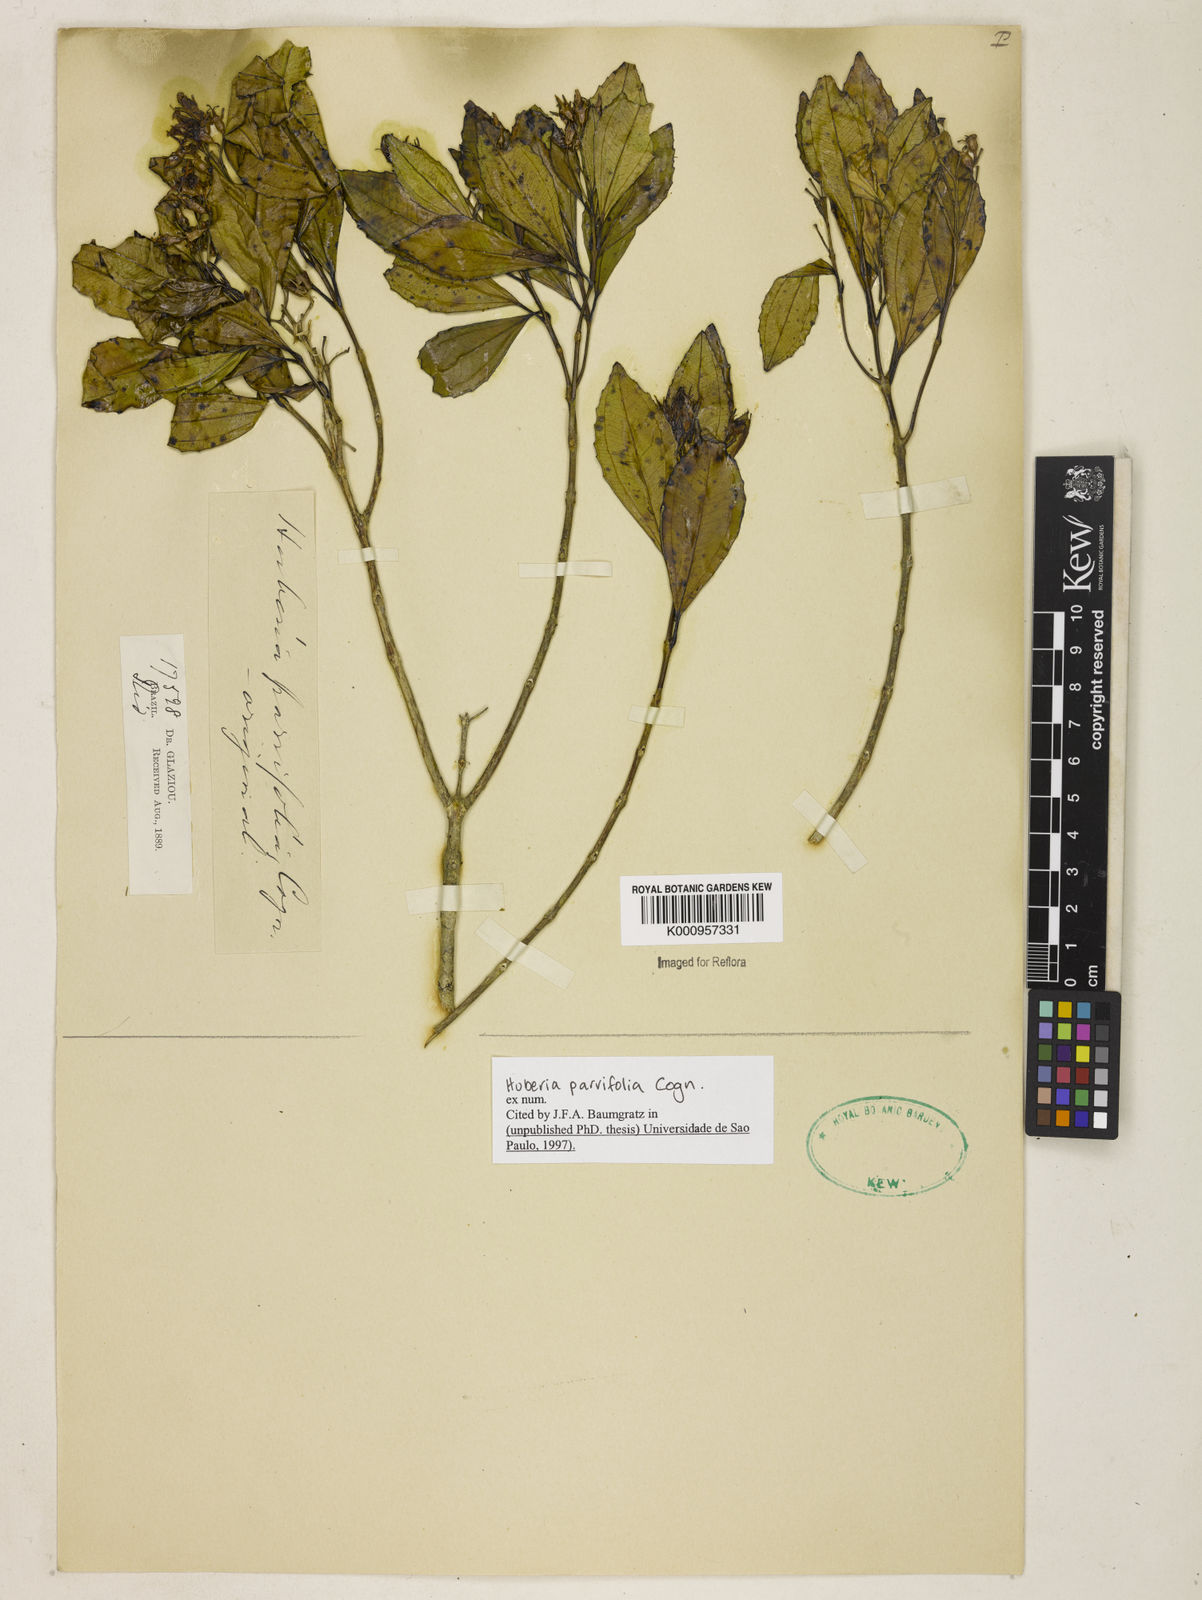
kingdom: Plantae
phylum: Tracheophyta
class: Magnoliopsida
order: Myrtales
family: Melastomataceae
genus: Huberia
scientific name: Huberia parvifolia
